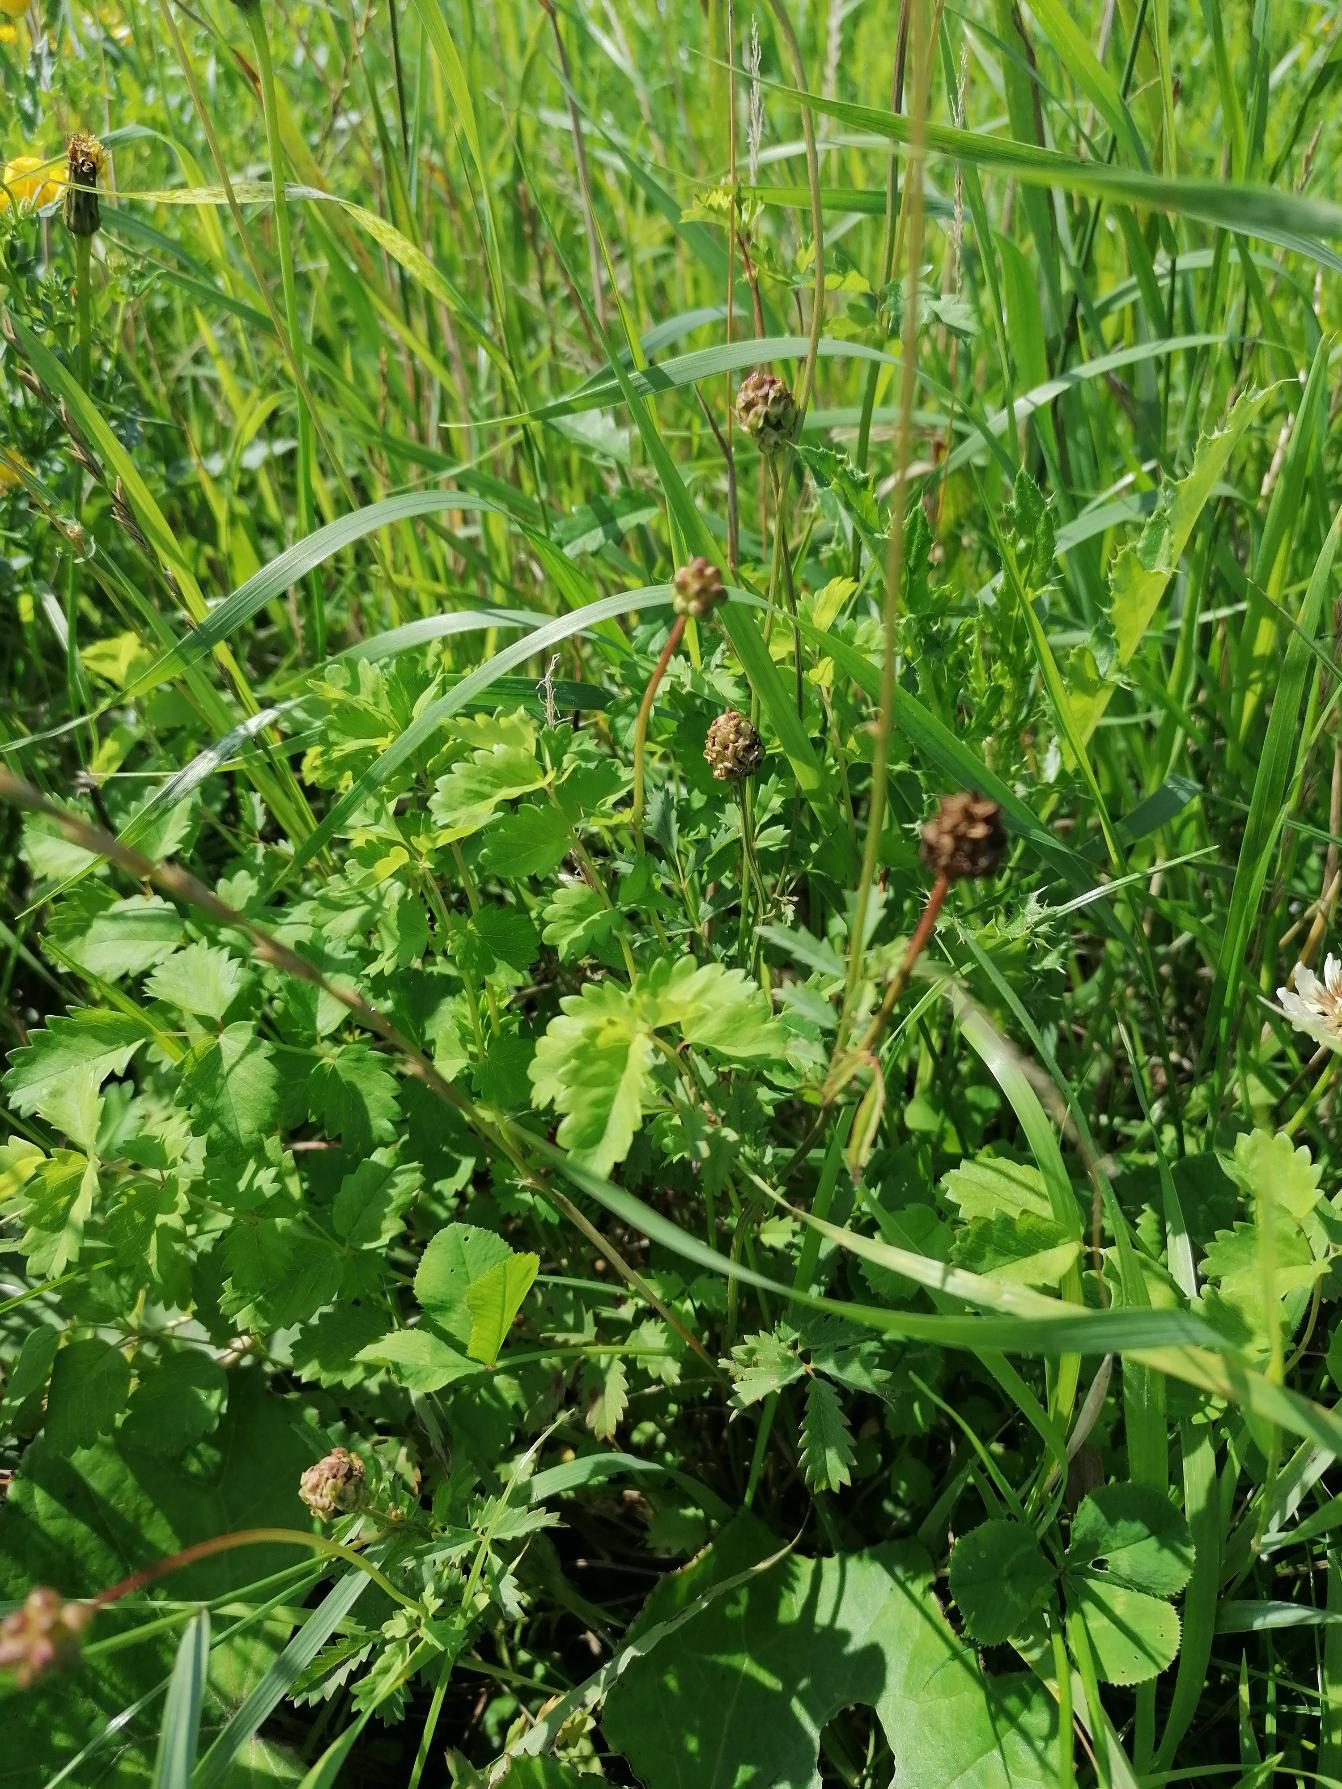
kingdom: Plantae
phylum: Tracheophyta
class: Magnoliopsida
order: Rosales
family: Rosaceae
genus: Poterium
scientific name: Poterium sanguisorba
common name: Bibernelle
